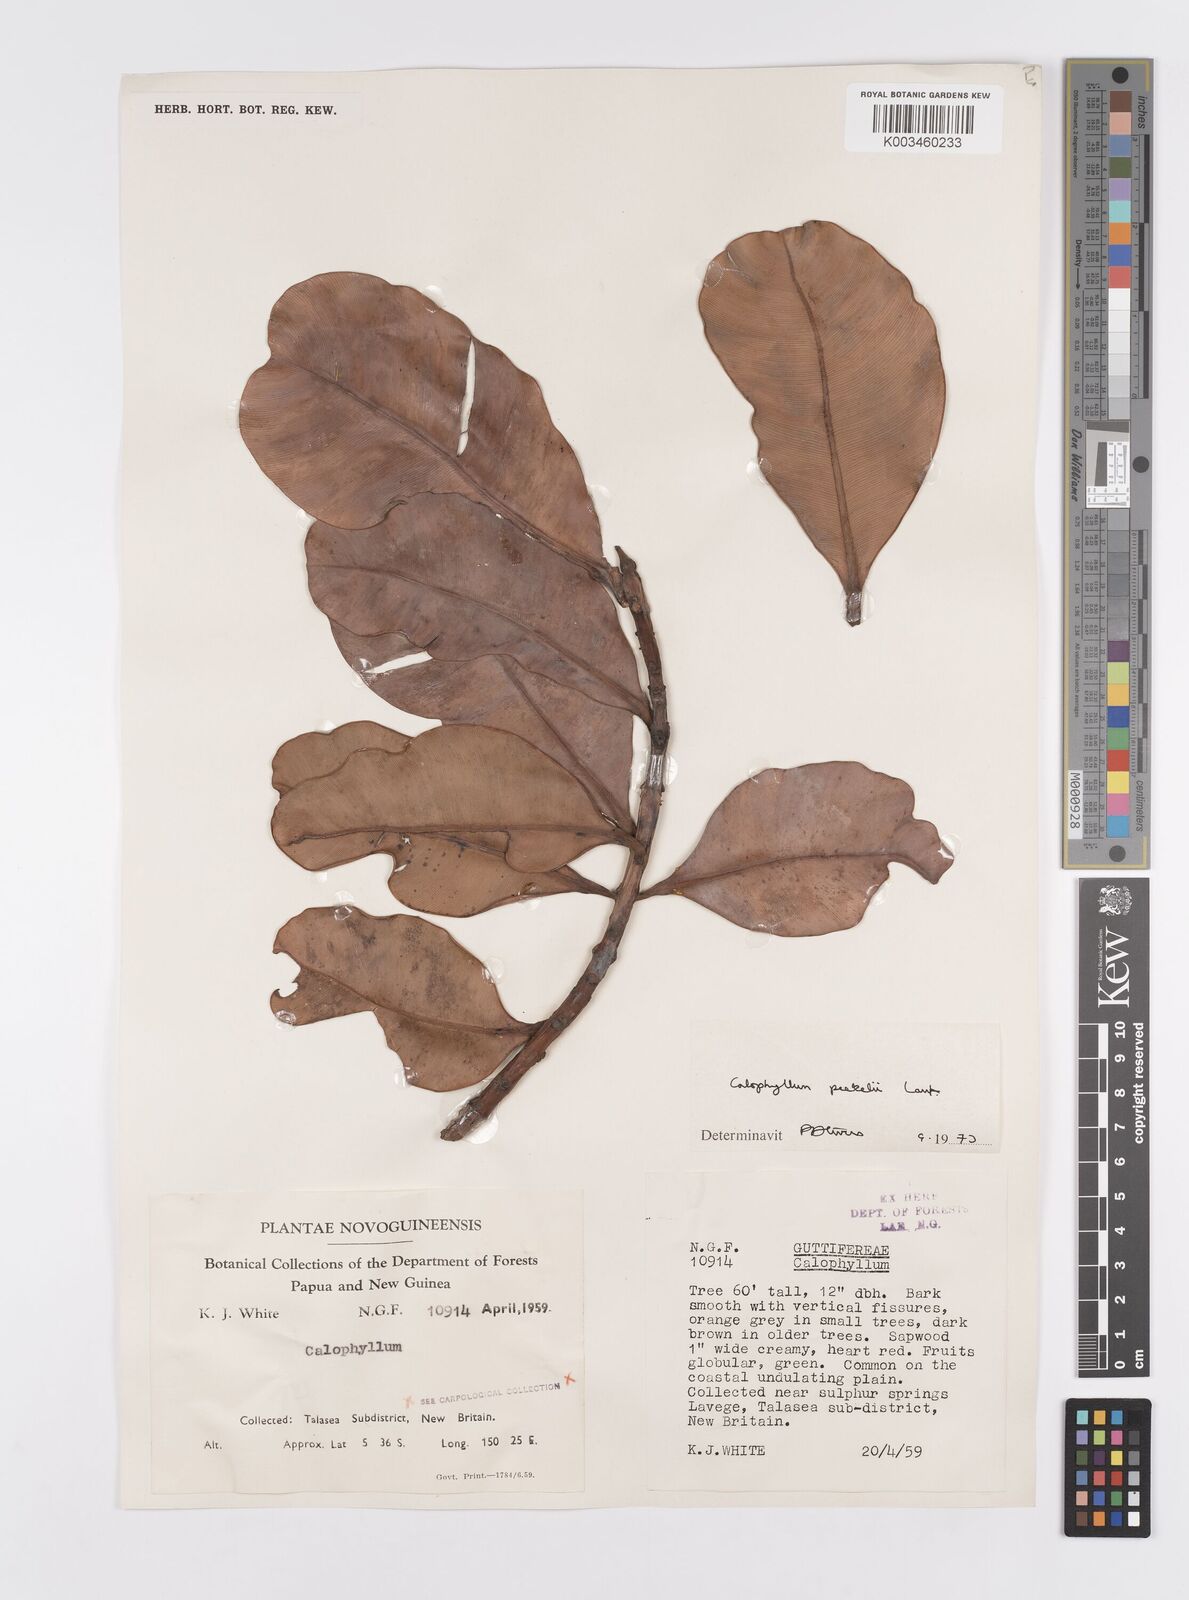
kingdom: Plantae
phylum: Tracheophyta
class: Magnoliopsida
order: Malpighiales
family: Calophyllaceae
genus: Calophyllum
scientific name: Calophyllum peekelii
